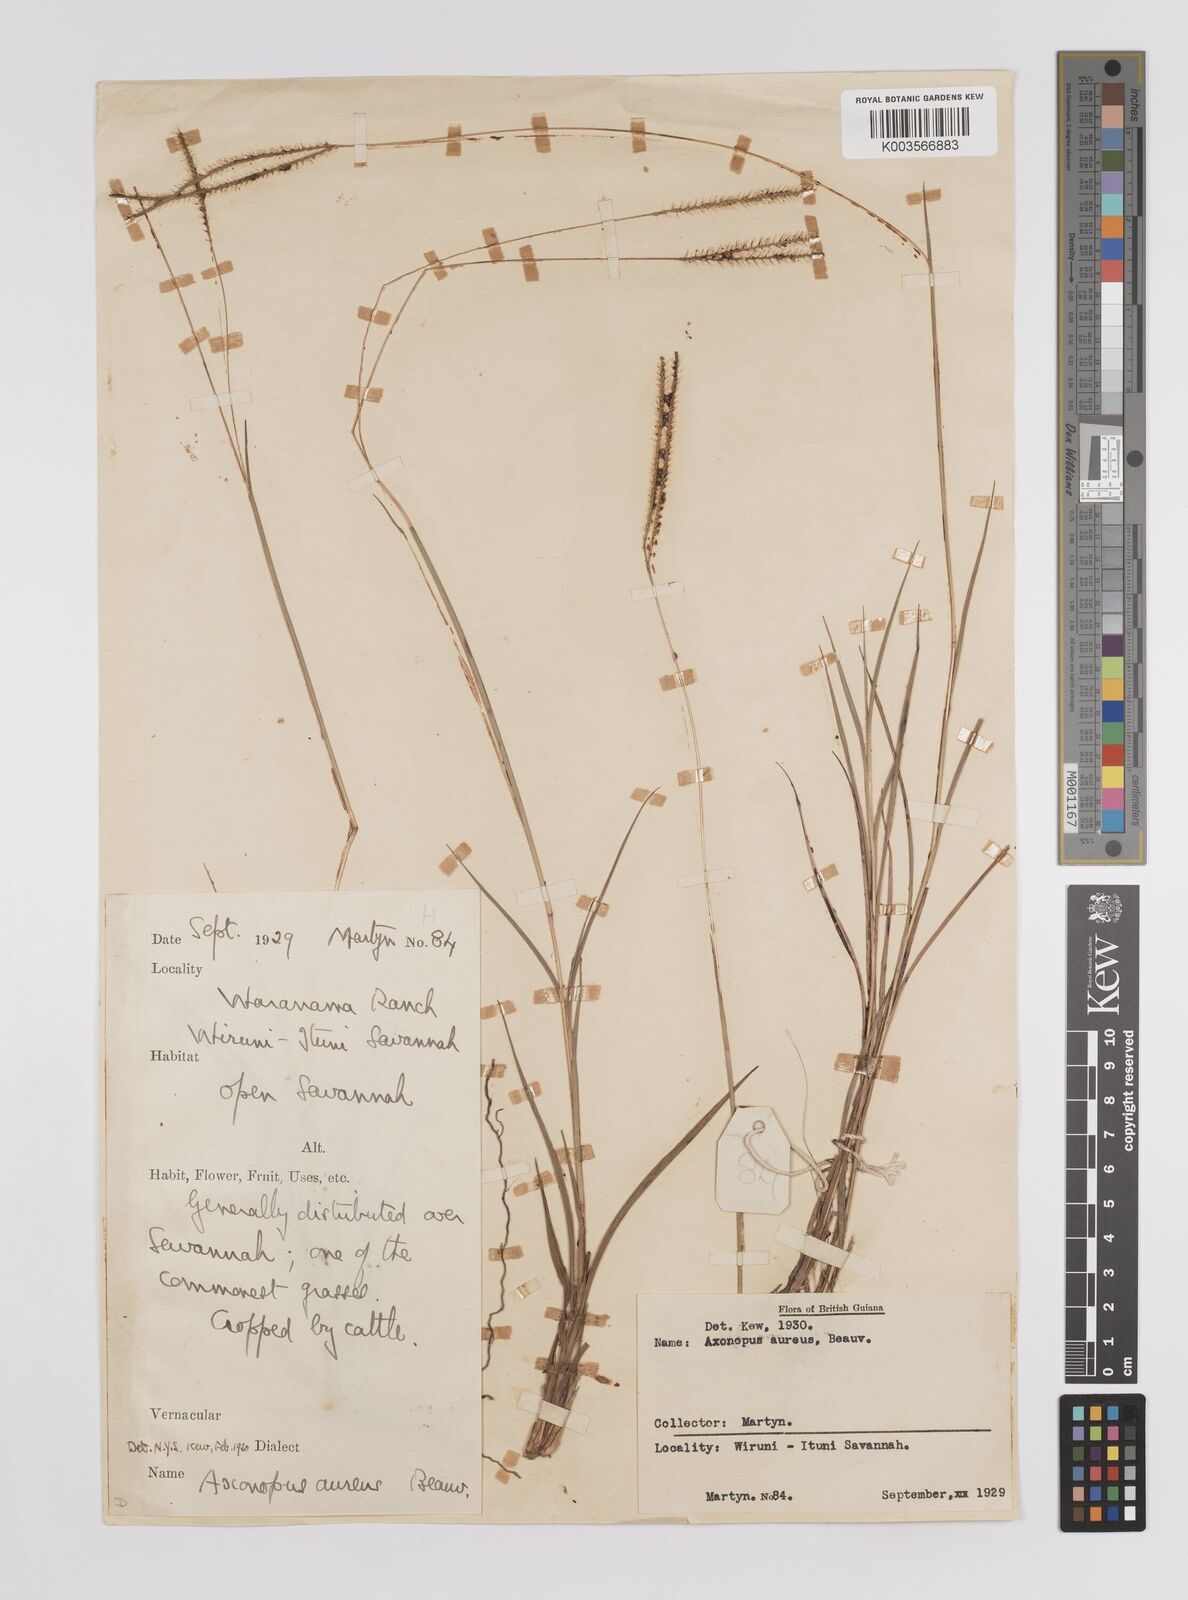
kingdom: Plantae
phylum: Tracheophyta
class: Liliopsida
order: Poales
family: Poaceae
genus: Axonopus
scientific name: Axonopus aureus
